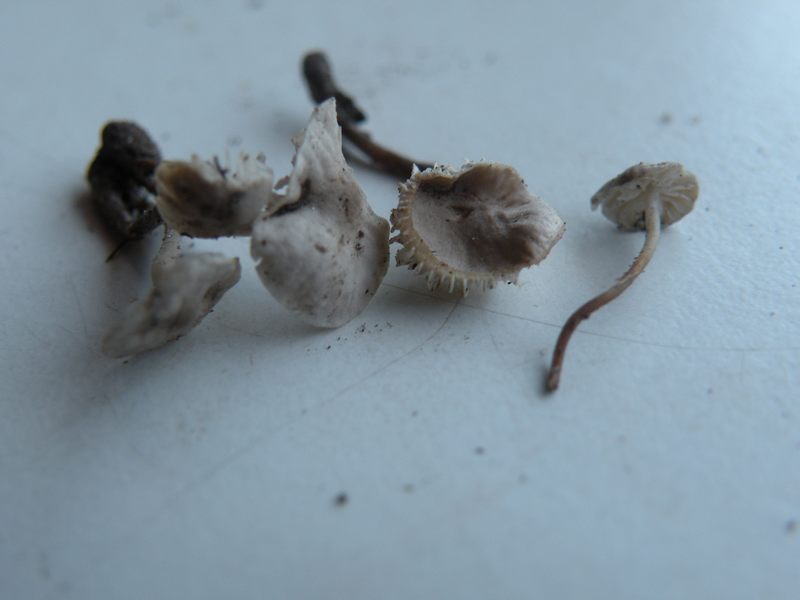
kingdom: Fungi
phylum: Basidiomycota
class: Agaricomycetes
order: Agaricales
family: Tricholomataceae
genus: Mycenella
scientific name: Mycenella lasiosperma
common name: stjernesporet dughat
